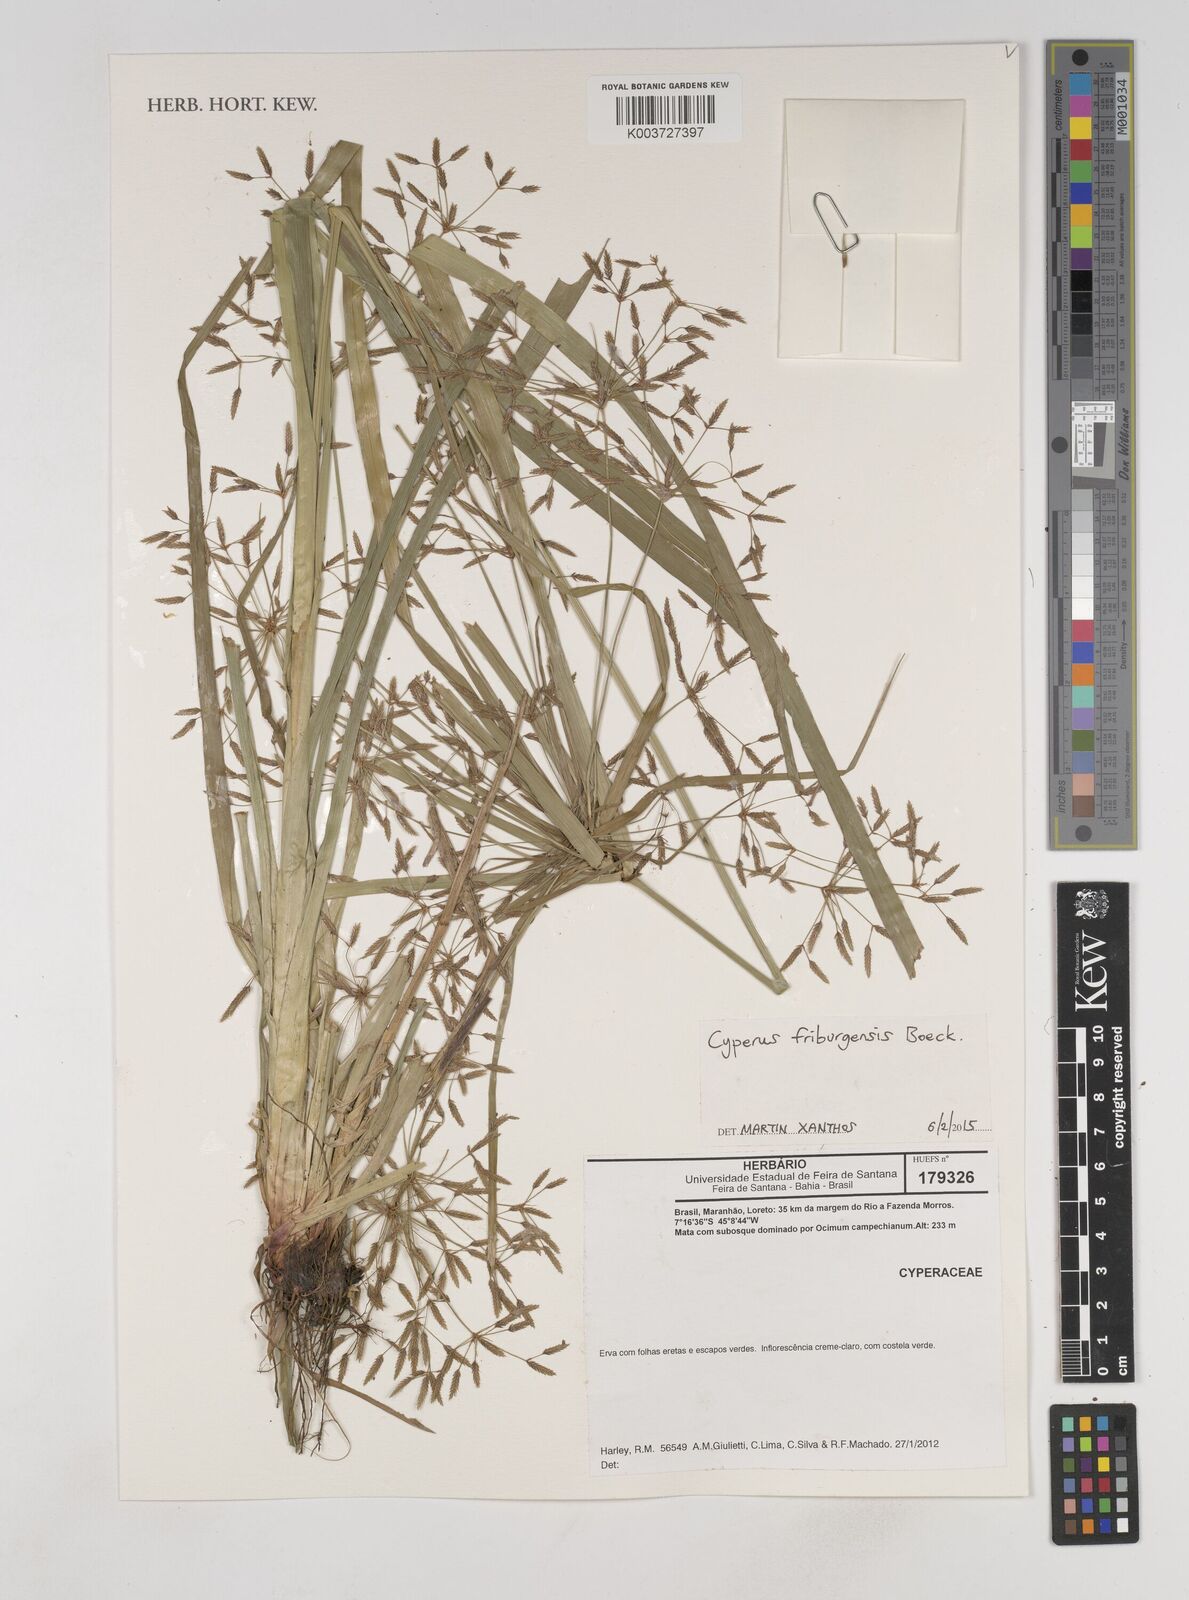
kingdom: Plantae
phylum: Tracheophyta
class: Liliopsida
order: Poales
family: Cyperaceae
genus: Cyperus
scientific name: Cyperus friburgensis
